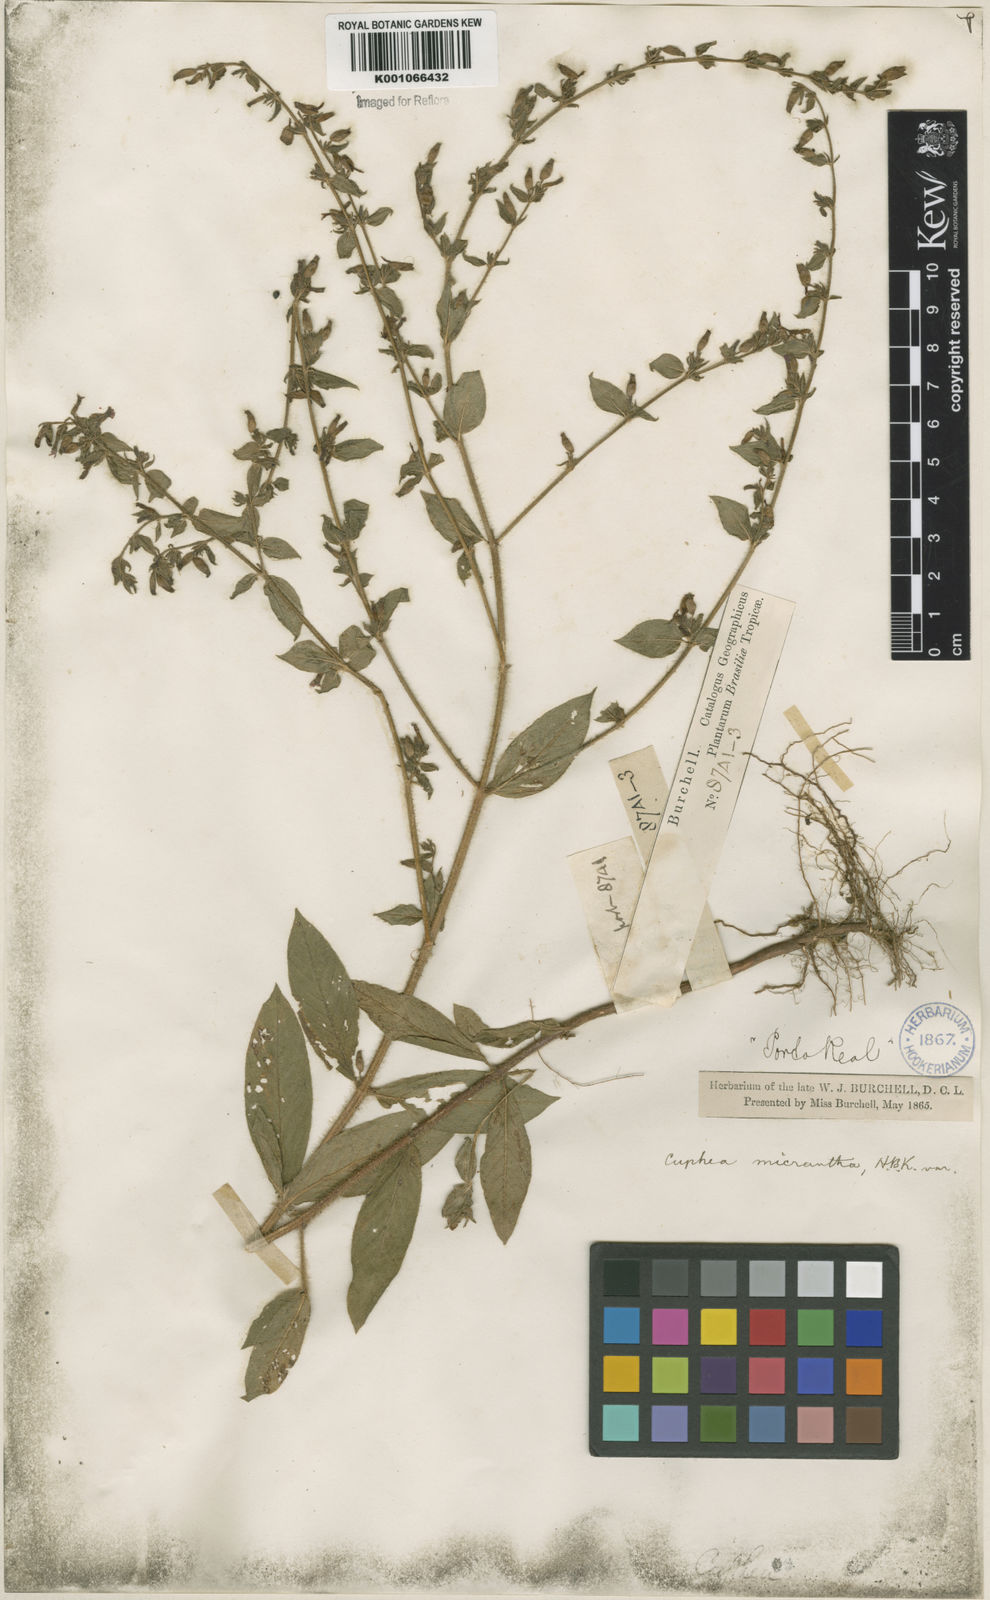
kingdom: Plantae
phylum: Tracheophyta
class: Magnoliopsida
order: Myrtales
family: Lythraceae
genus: Cuphea
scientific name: Cuphea micrantha
